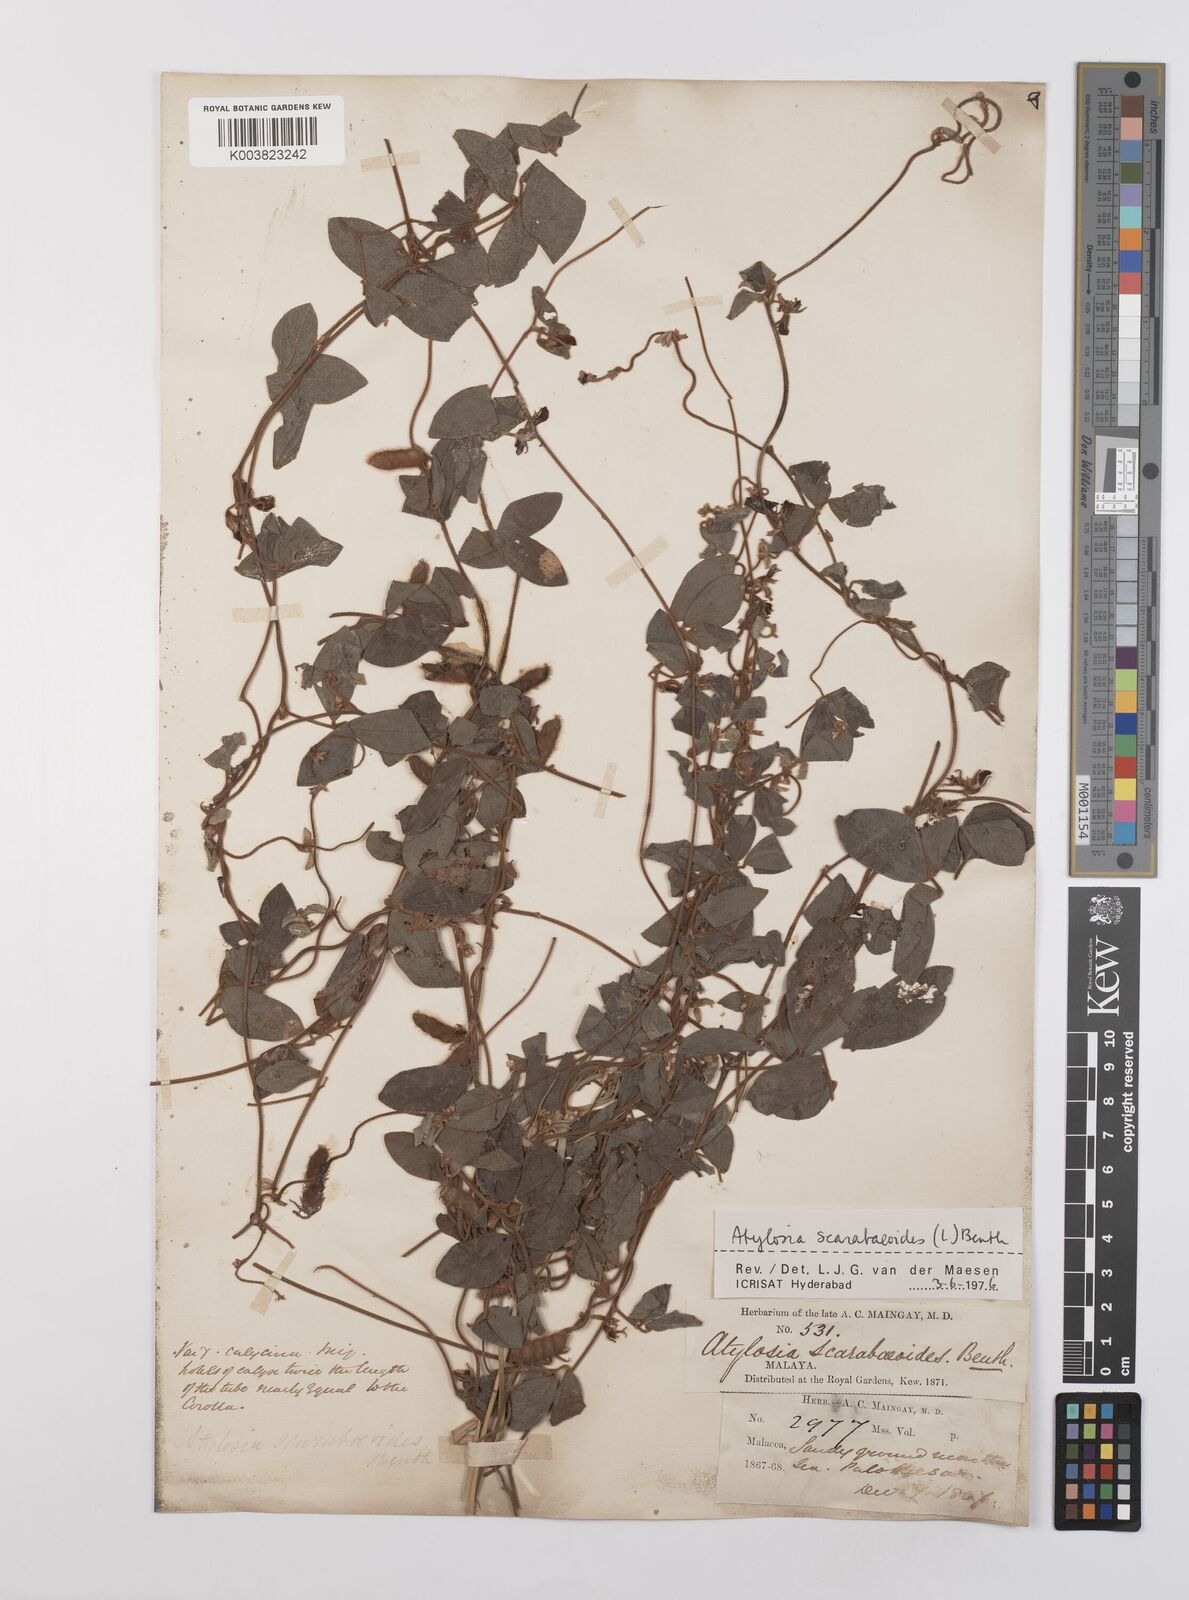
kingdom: Plantae
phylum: Tracheophyta
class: Magnoliopsida
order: Fabales
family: Fabaceae
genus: Cajanus
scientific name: Cajanus scarabaeoides
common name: Showy pigeonpea
